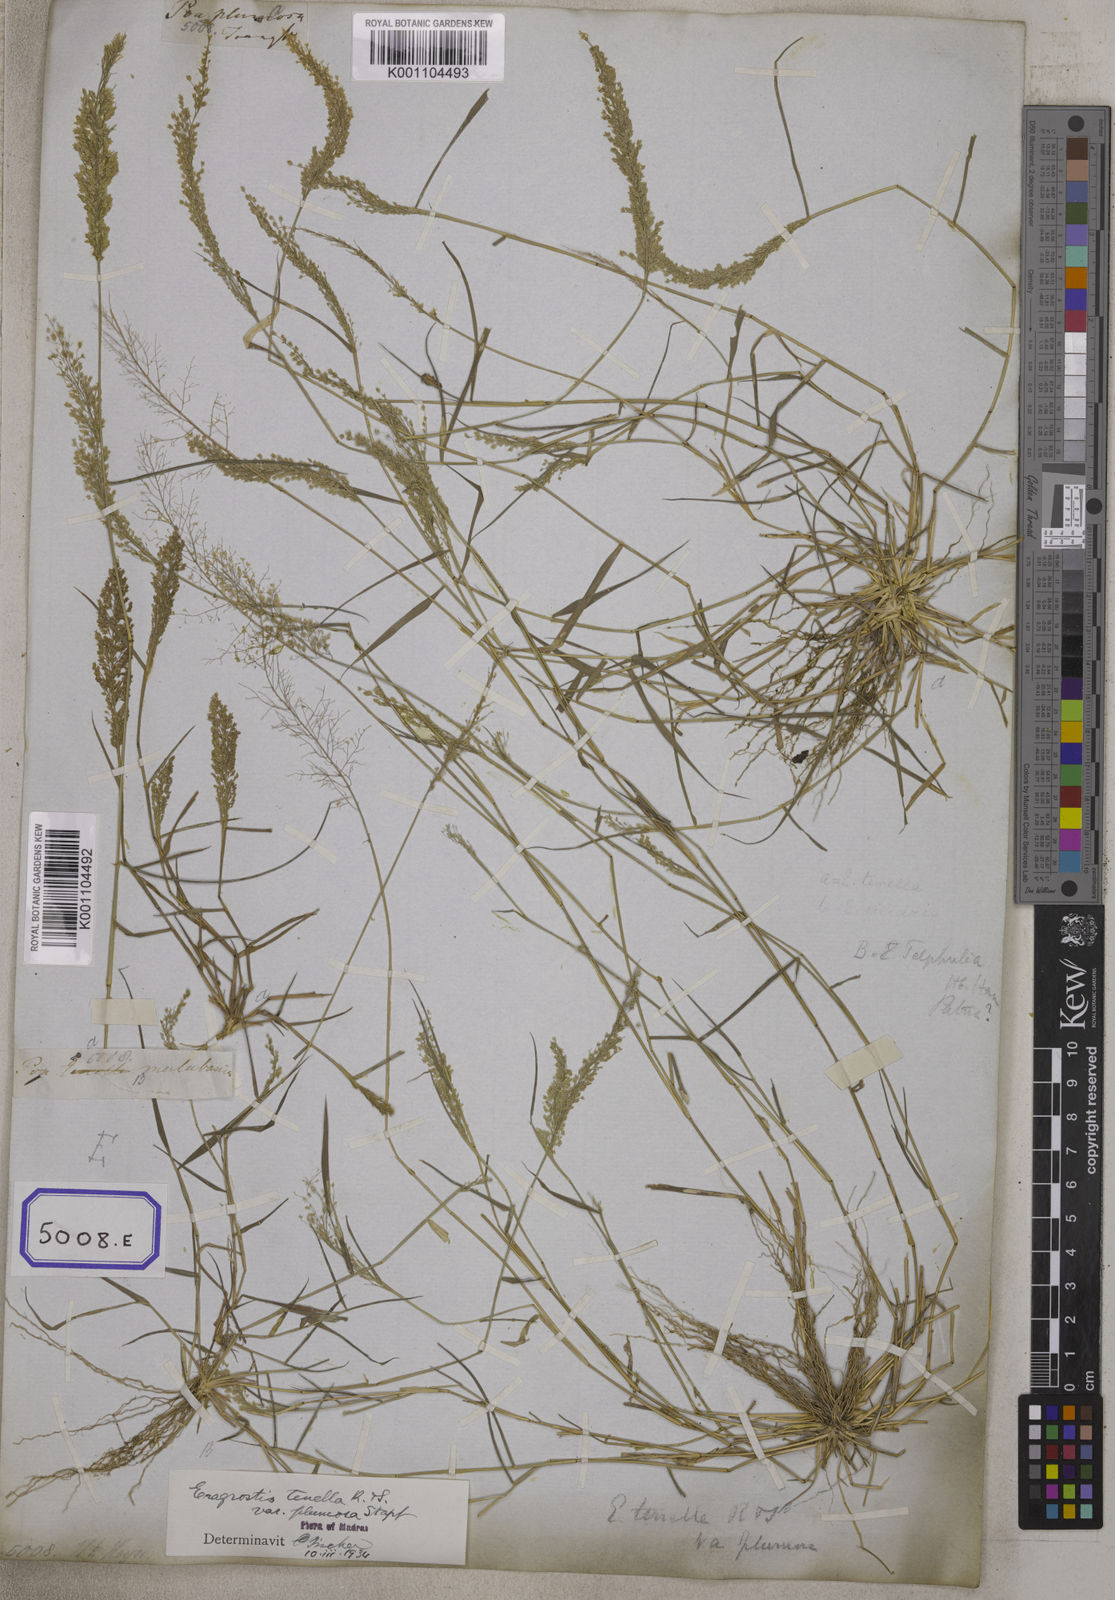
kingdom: Plantae
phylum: Tracheophyta
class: Liliopsida
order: Poales
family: Poaceae
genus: Eragrostis
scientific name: Eragrostis
